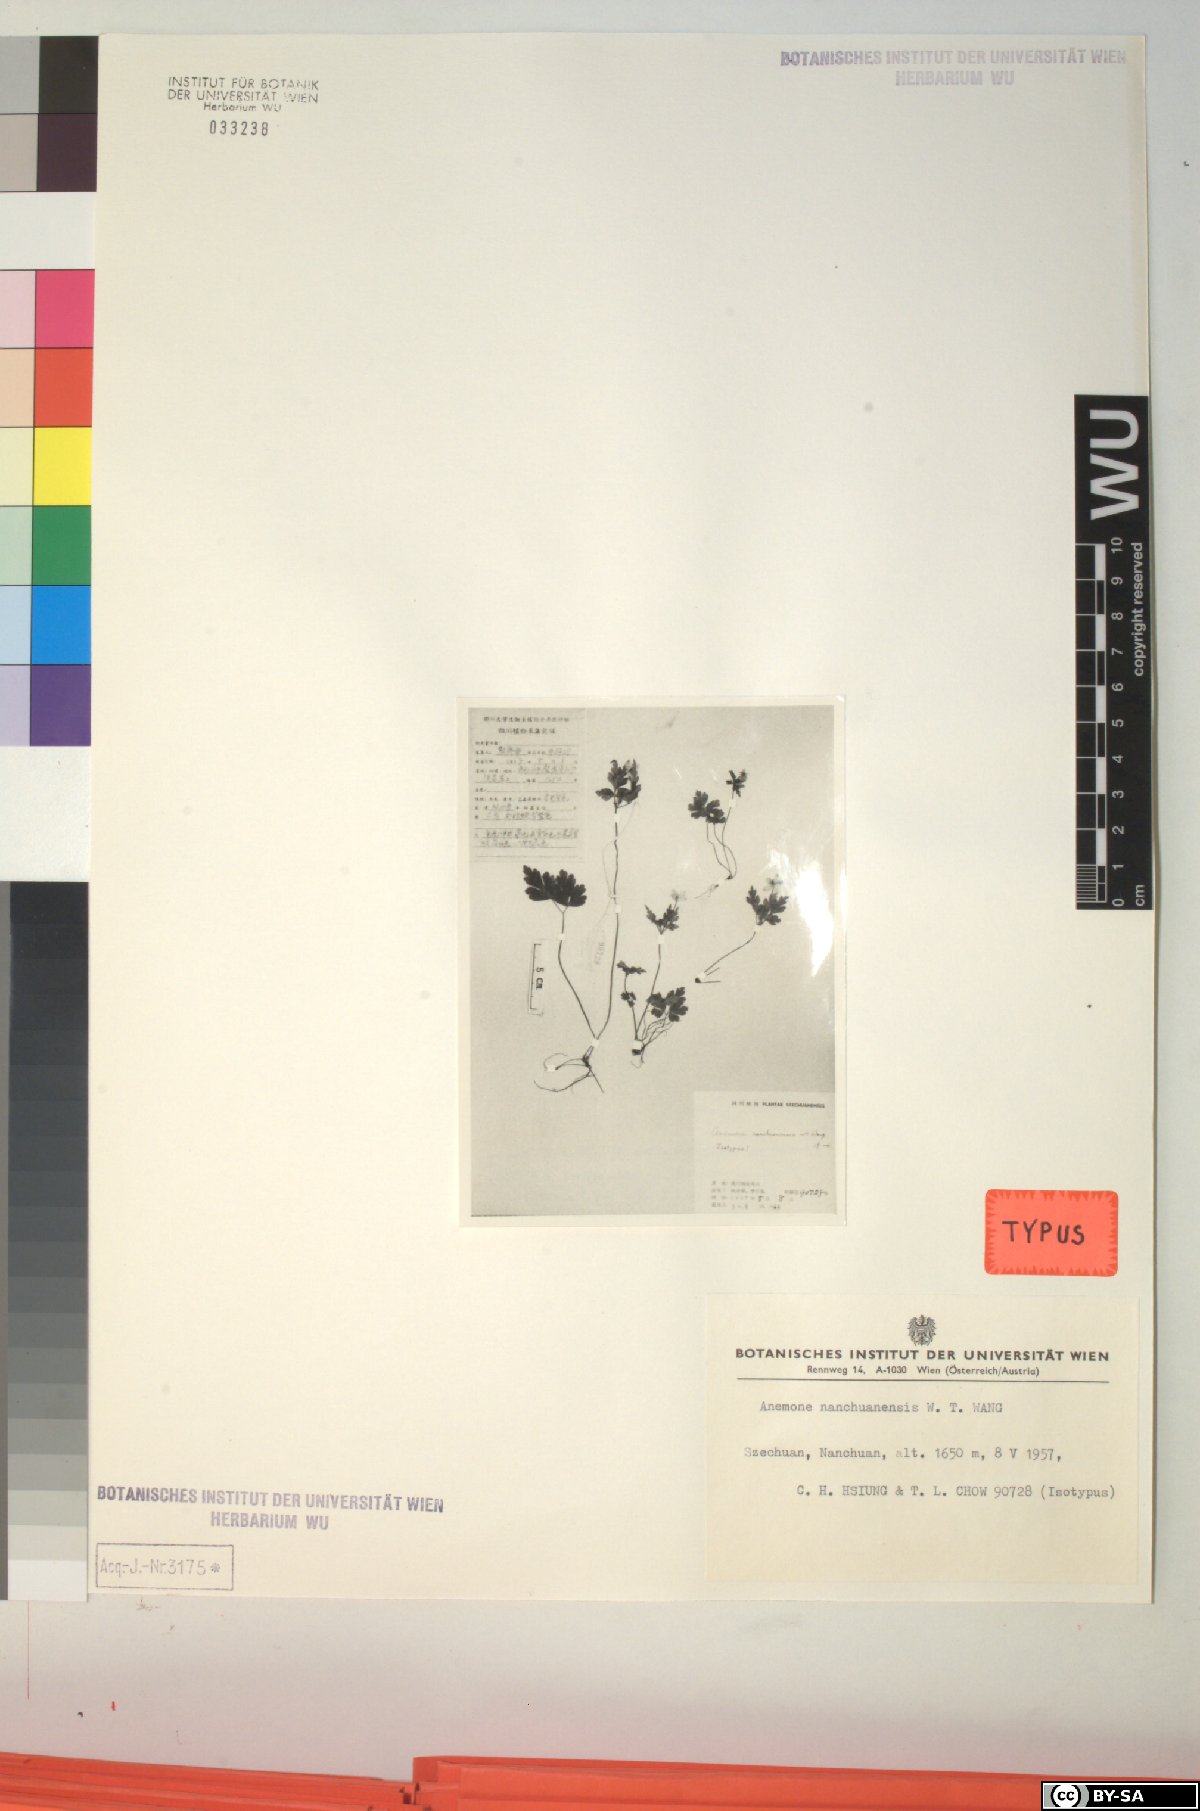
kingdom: Plantae
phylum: Tracheophyta
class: Magnoliopsida
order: Ranunculales
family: Ranunculaceae
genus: Anemone
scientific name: Anemone griffithii
